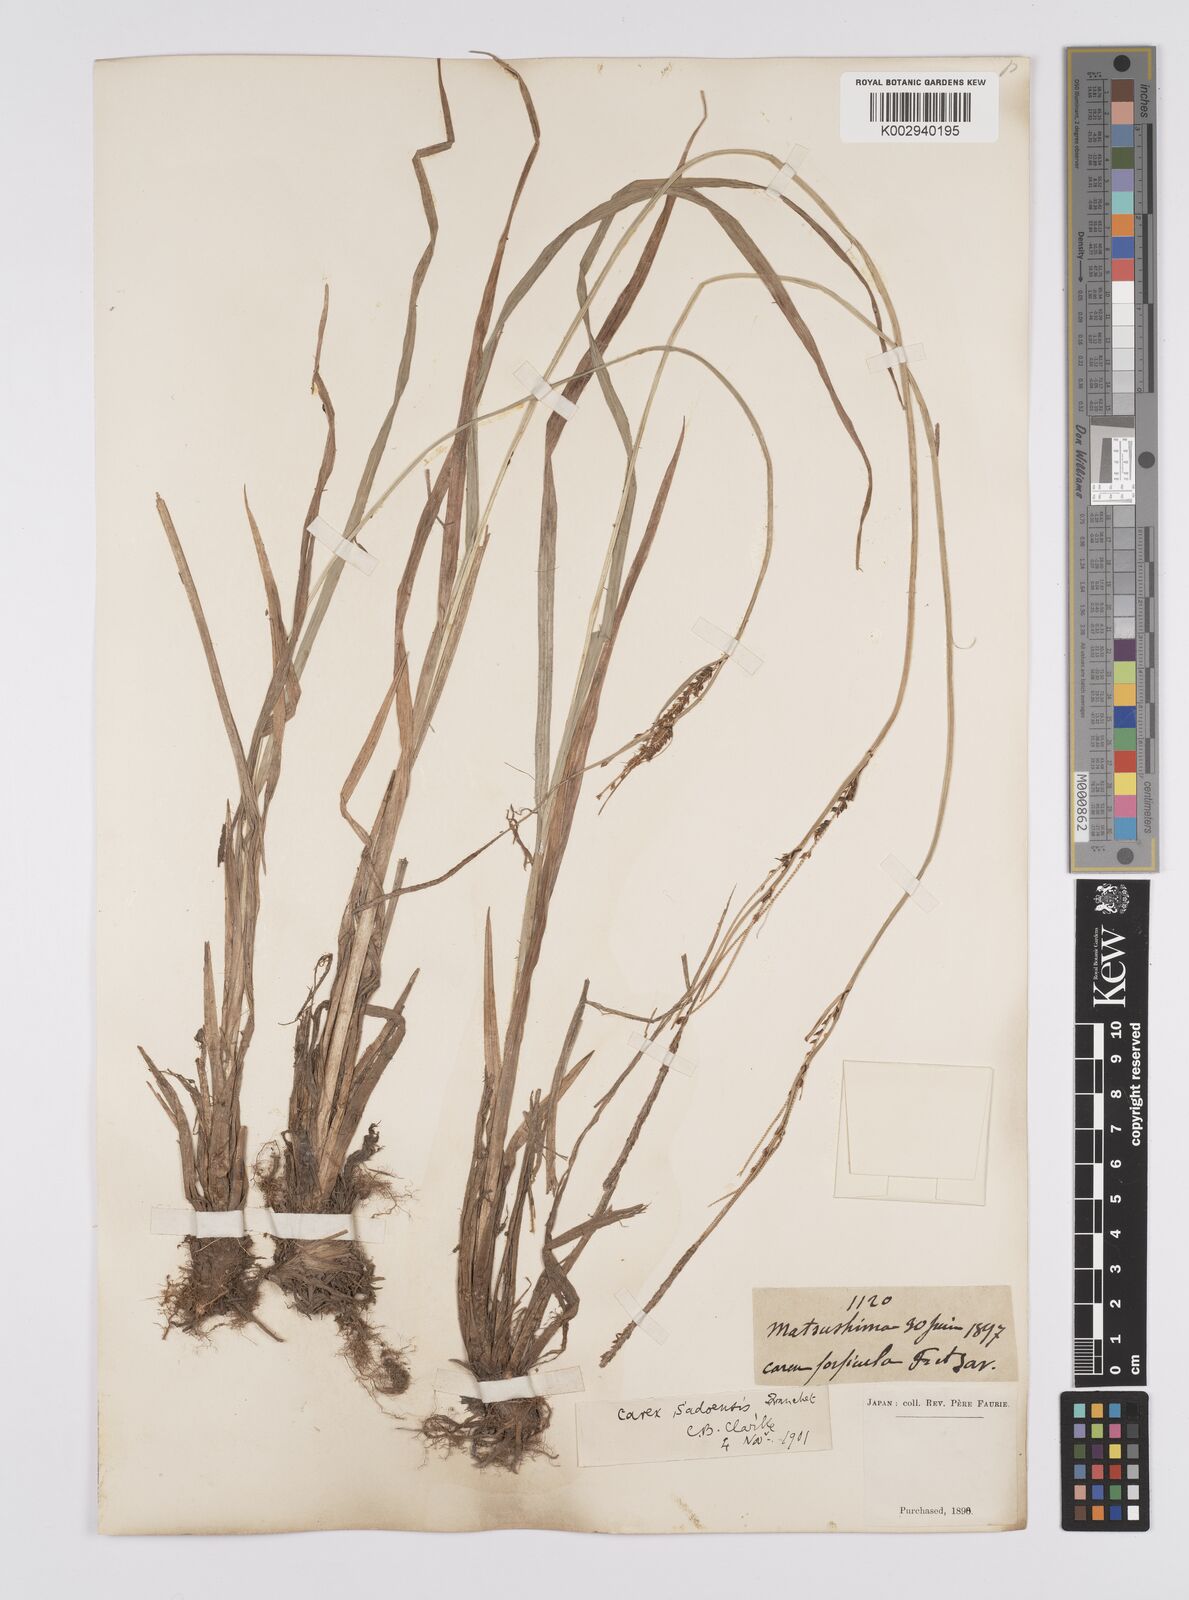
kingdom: Plantae
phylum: Tracheophyta
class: Liliopsida
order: Poales
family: Cyperaceae
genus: Carex
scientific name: Carex sadoensis
